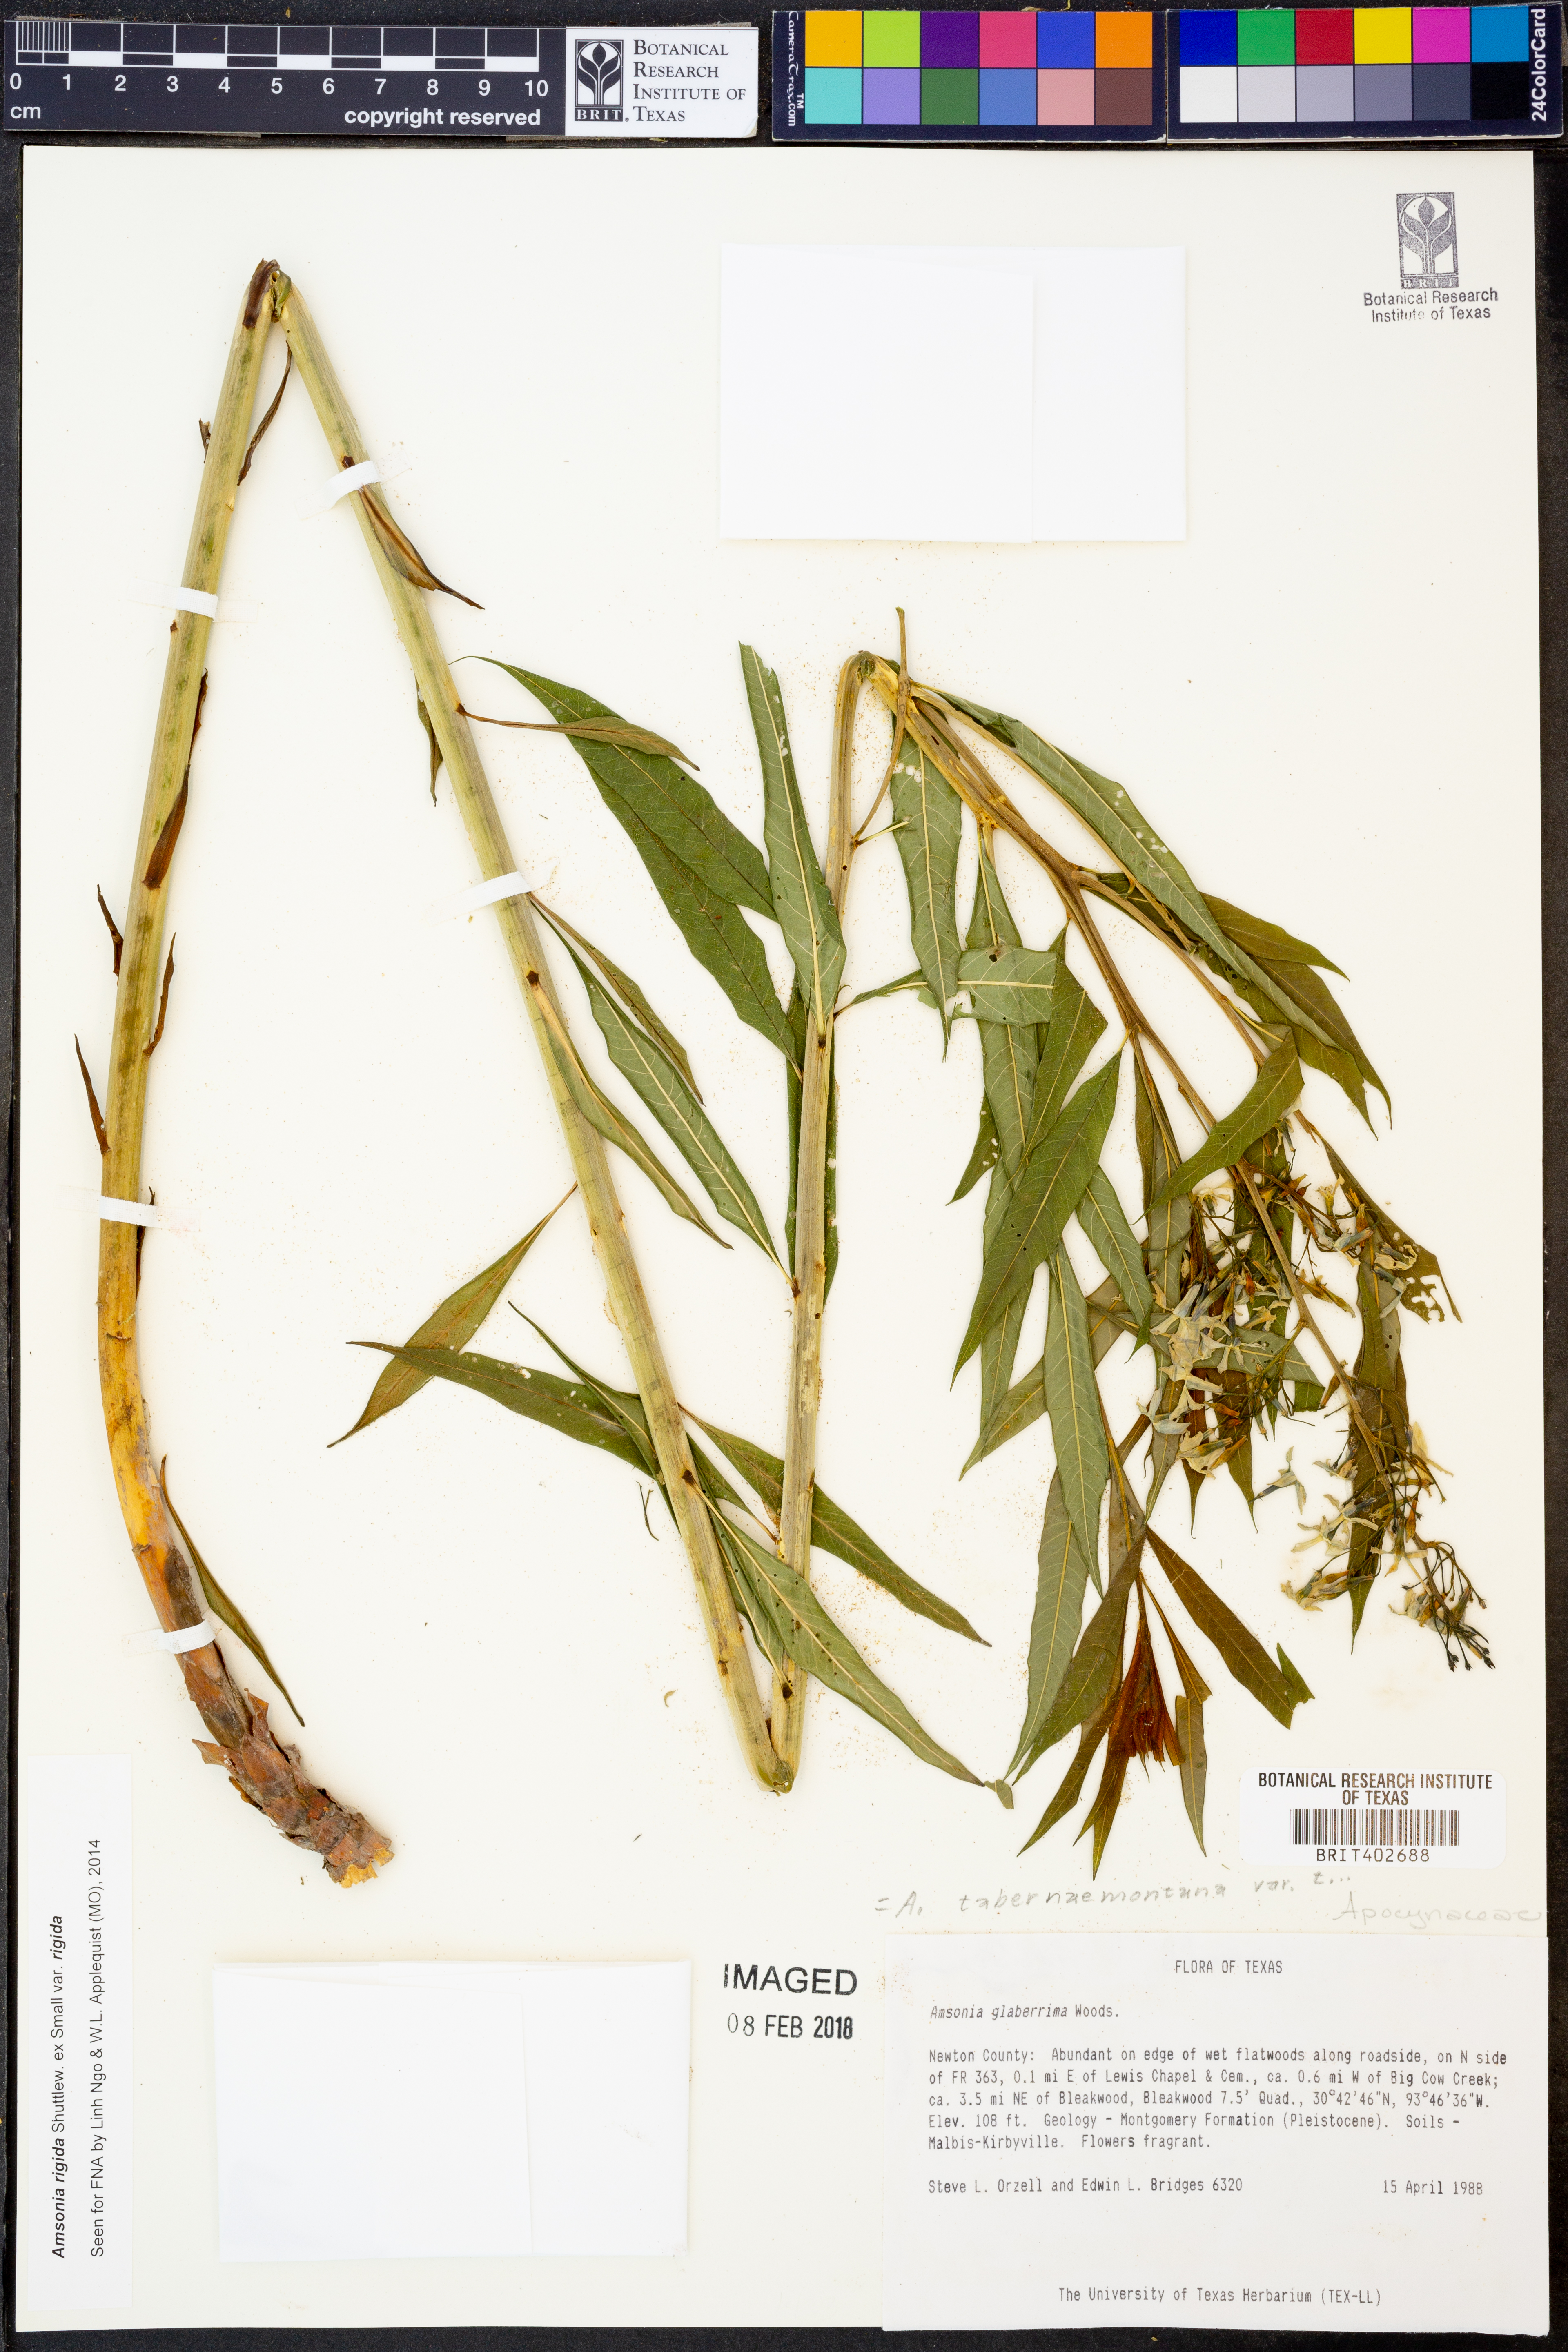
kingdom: Plantae
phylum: Tracheophyta
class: Magnoliopsida
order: Gentianales
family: Apocynaceae
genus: Amsonia
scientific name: Amsonia tabernaemontana
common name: Texas-star
